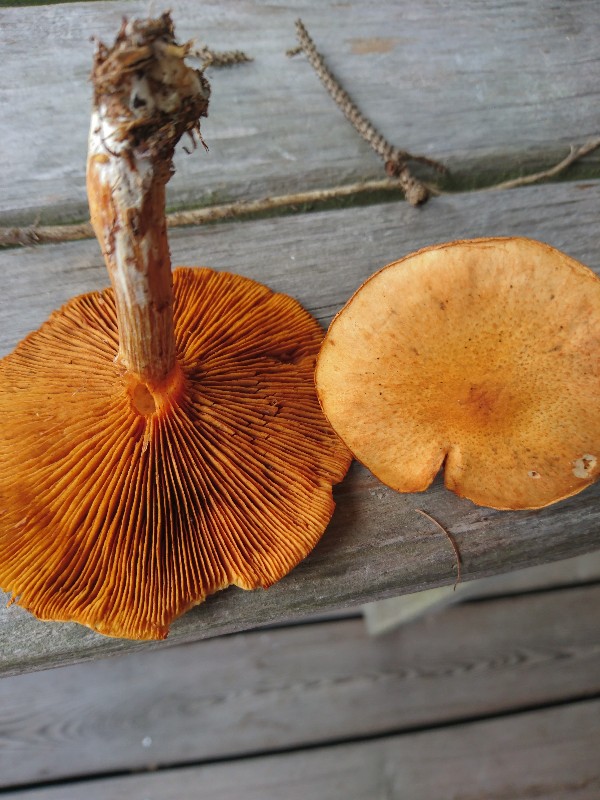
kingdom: Fungi
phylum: Basidiomycota
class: Agaricomycetes
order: Agaricales
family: Hymenogastraceae
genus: Gymnopilus
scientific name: Gymnopilus spectabilis
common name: fibret flammehat
